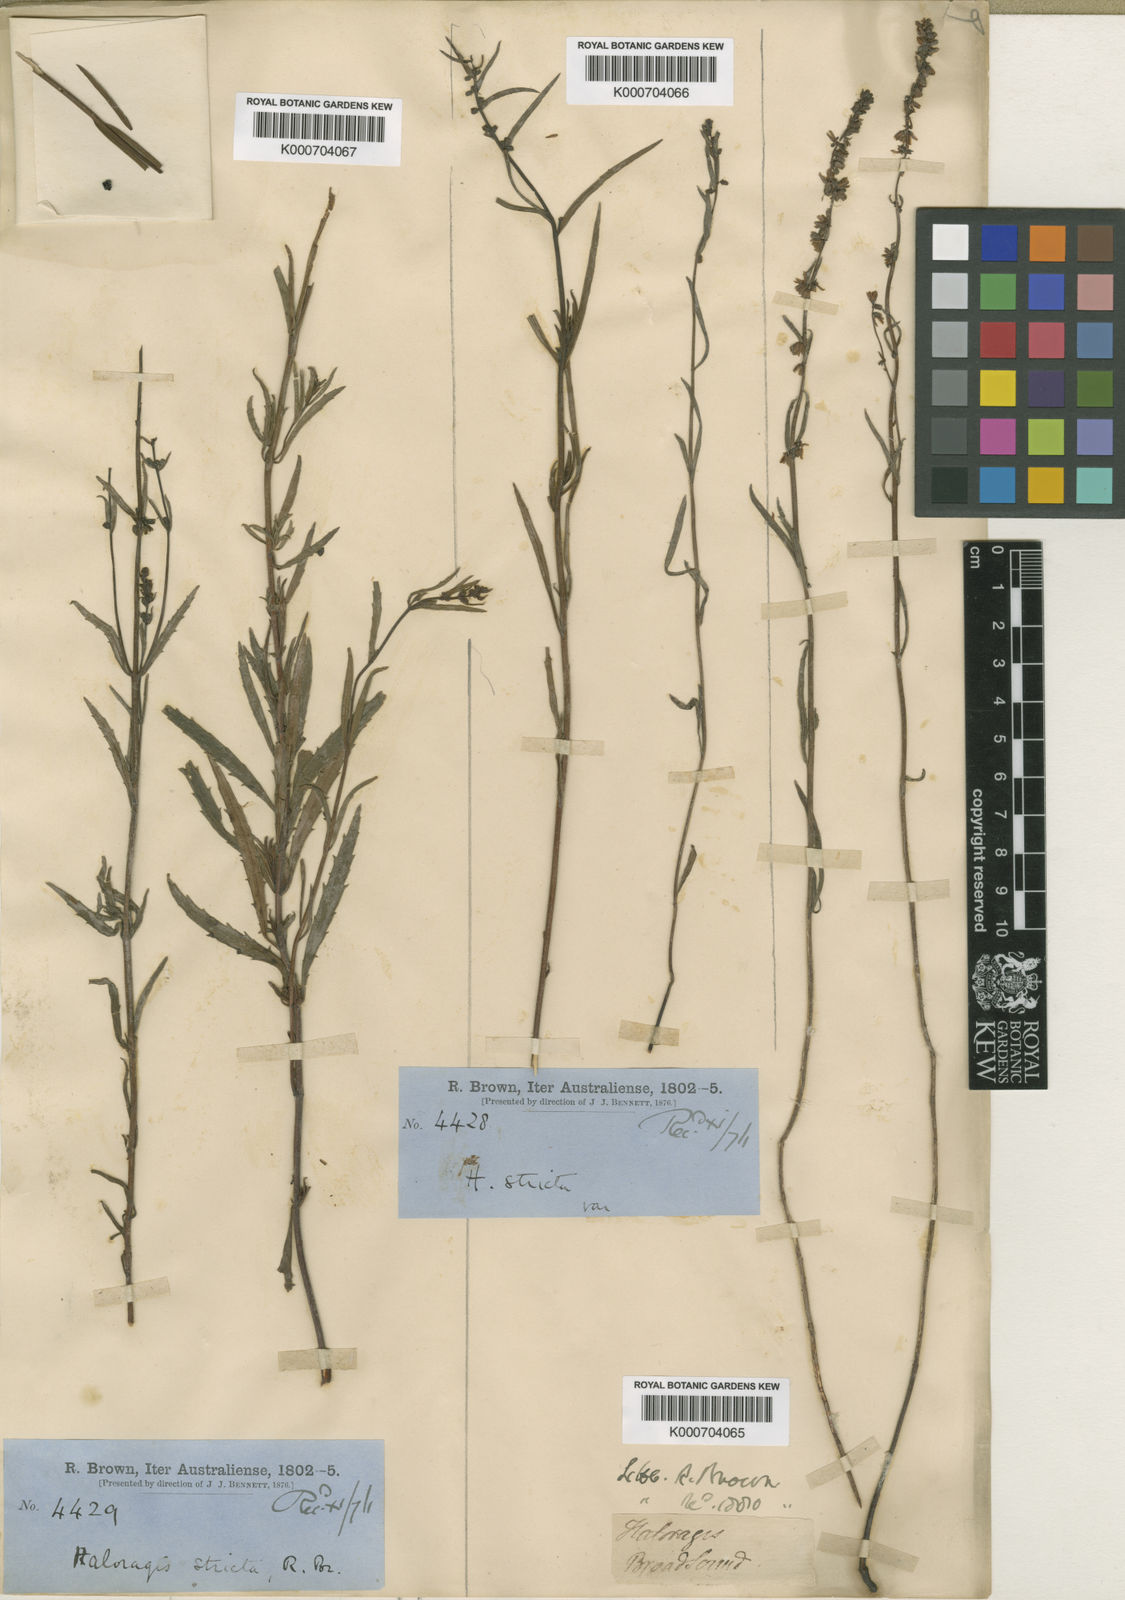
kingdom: Plantae
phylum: Tracheophyta
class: Magnoliopsida
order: Saxifragales
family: Haloragaceae
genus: Haloragis
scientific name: Haloragis stricta
